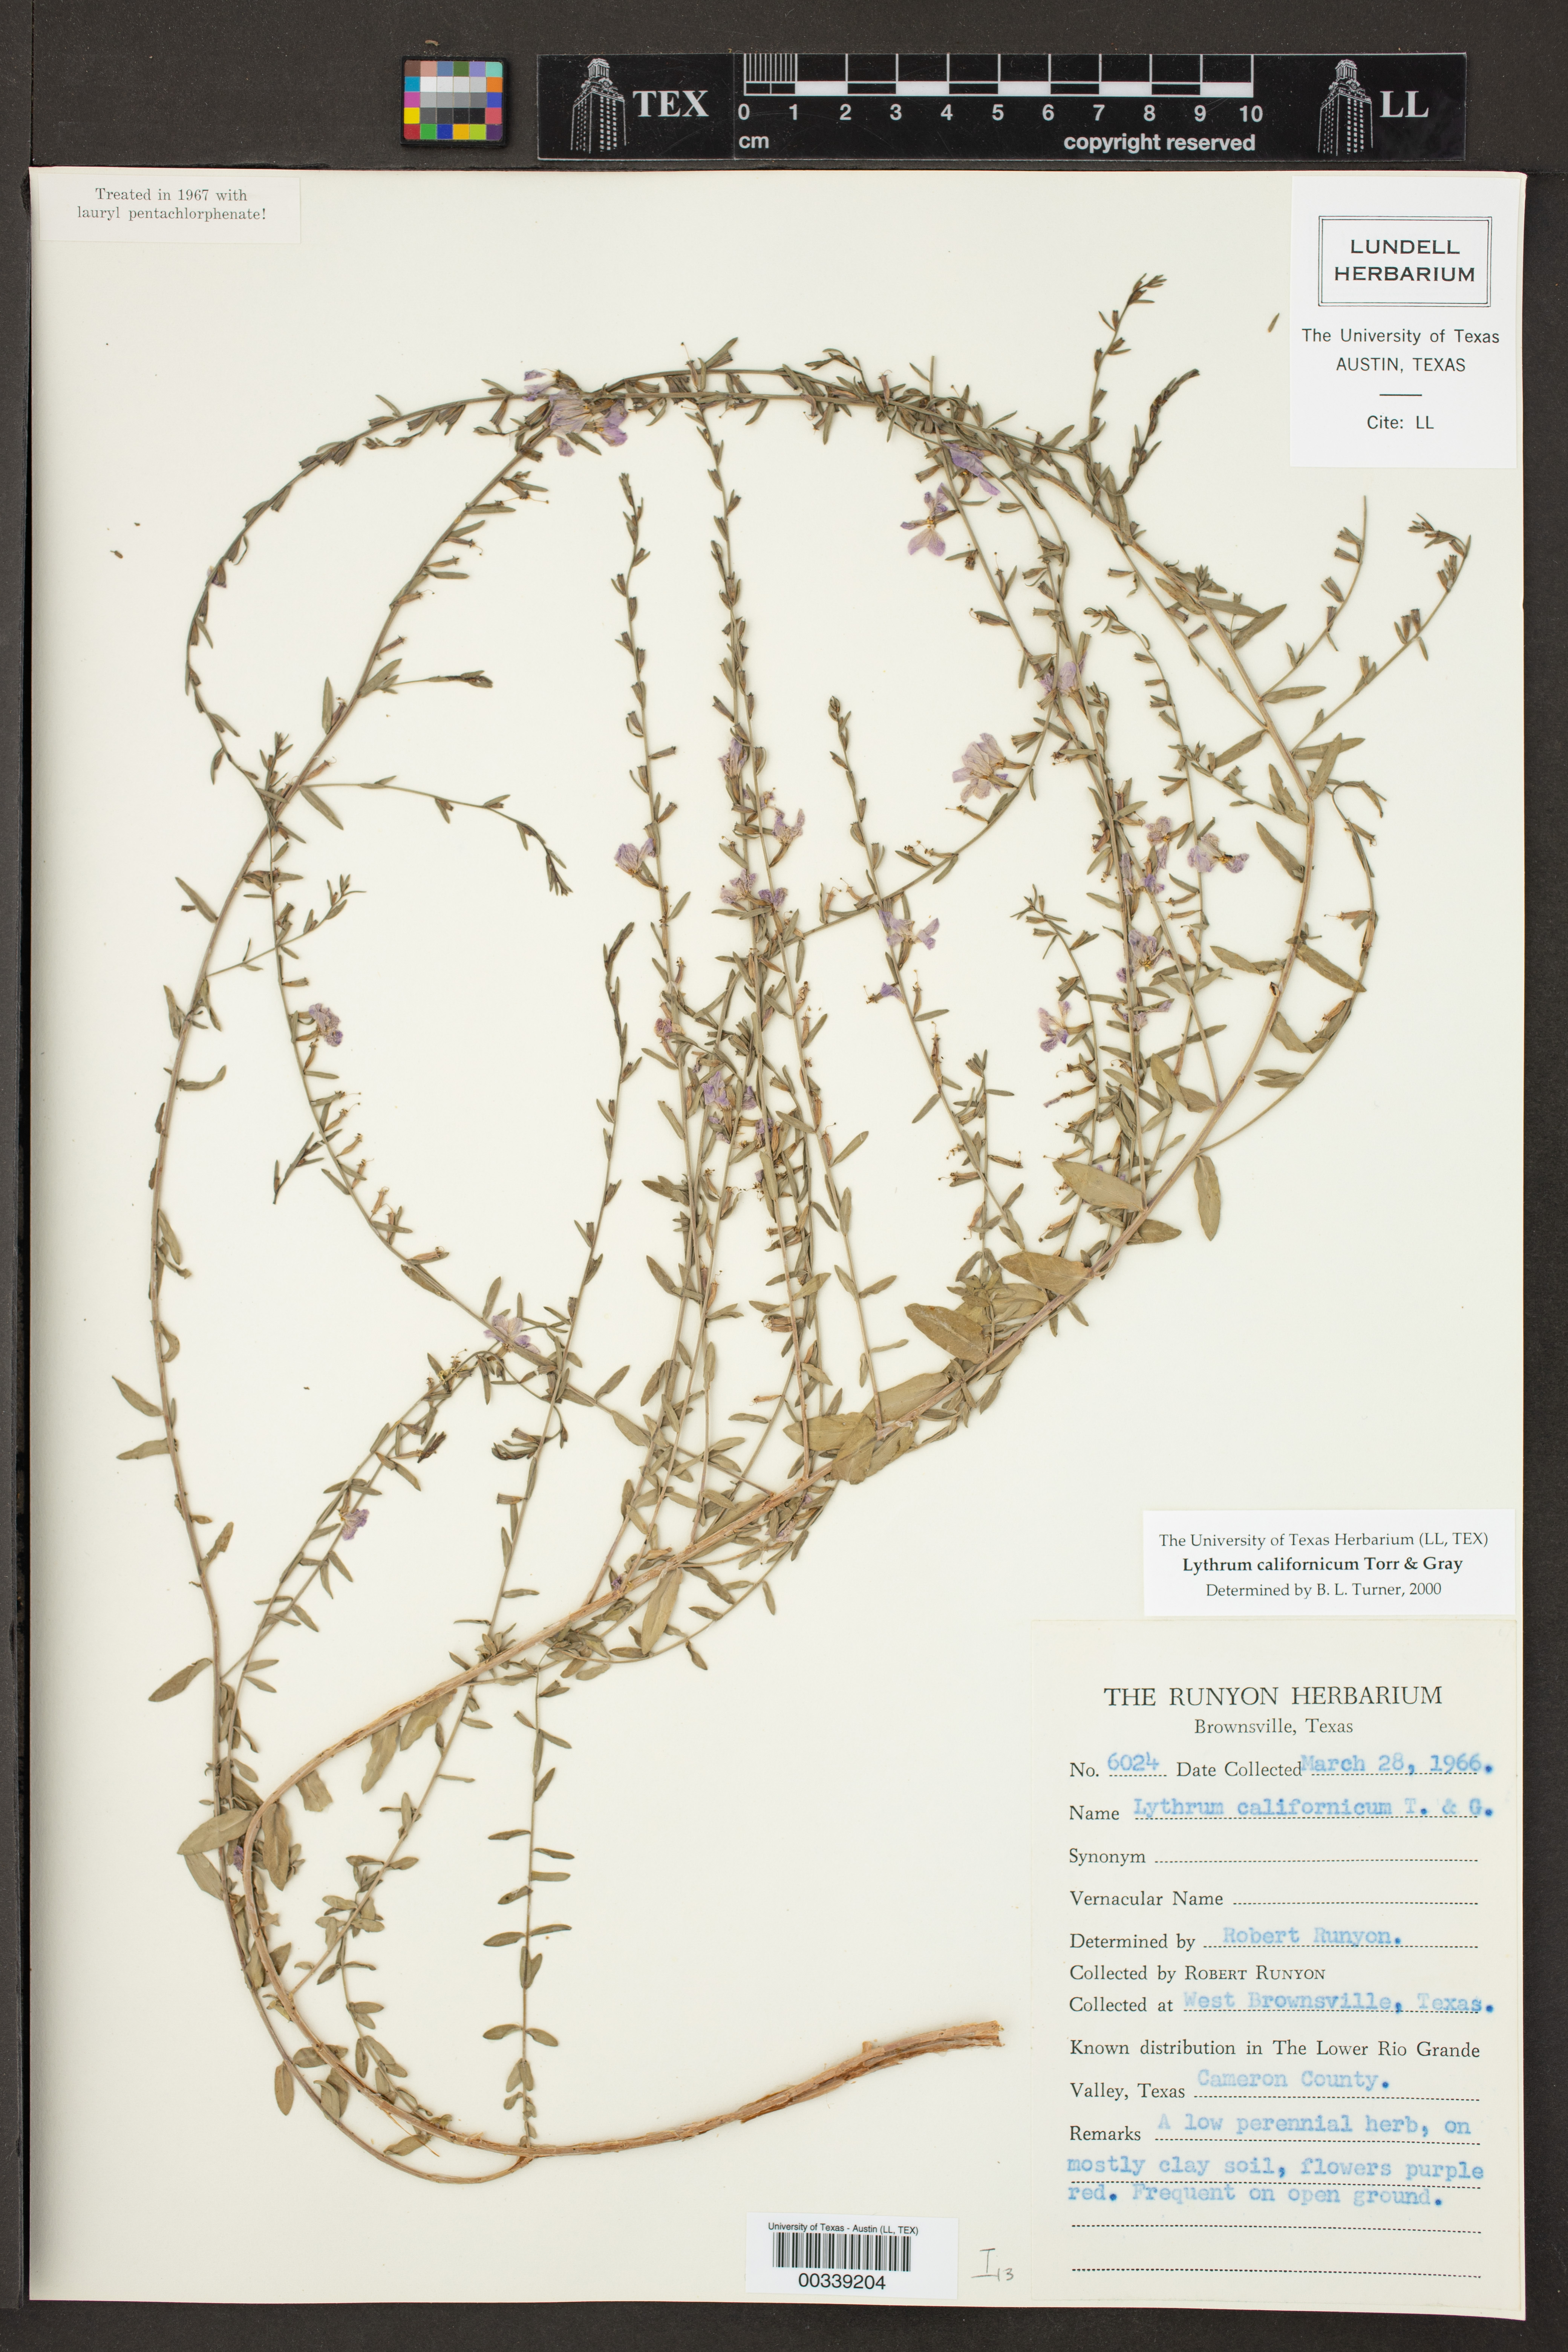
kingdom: Plantae
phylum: Tracheophyta
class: Magnoliopsida
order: Myrtales
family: Lythraceae
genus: Lythrum
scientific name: Lythrum californicum
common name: California loosestrife
